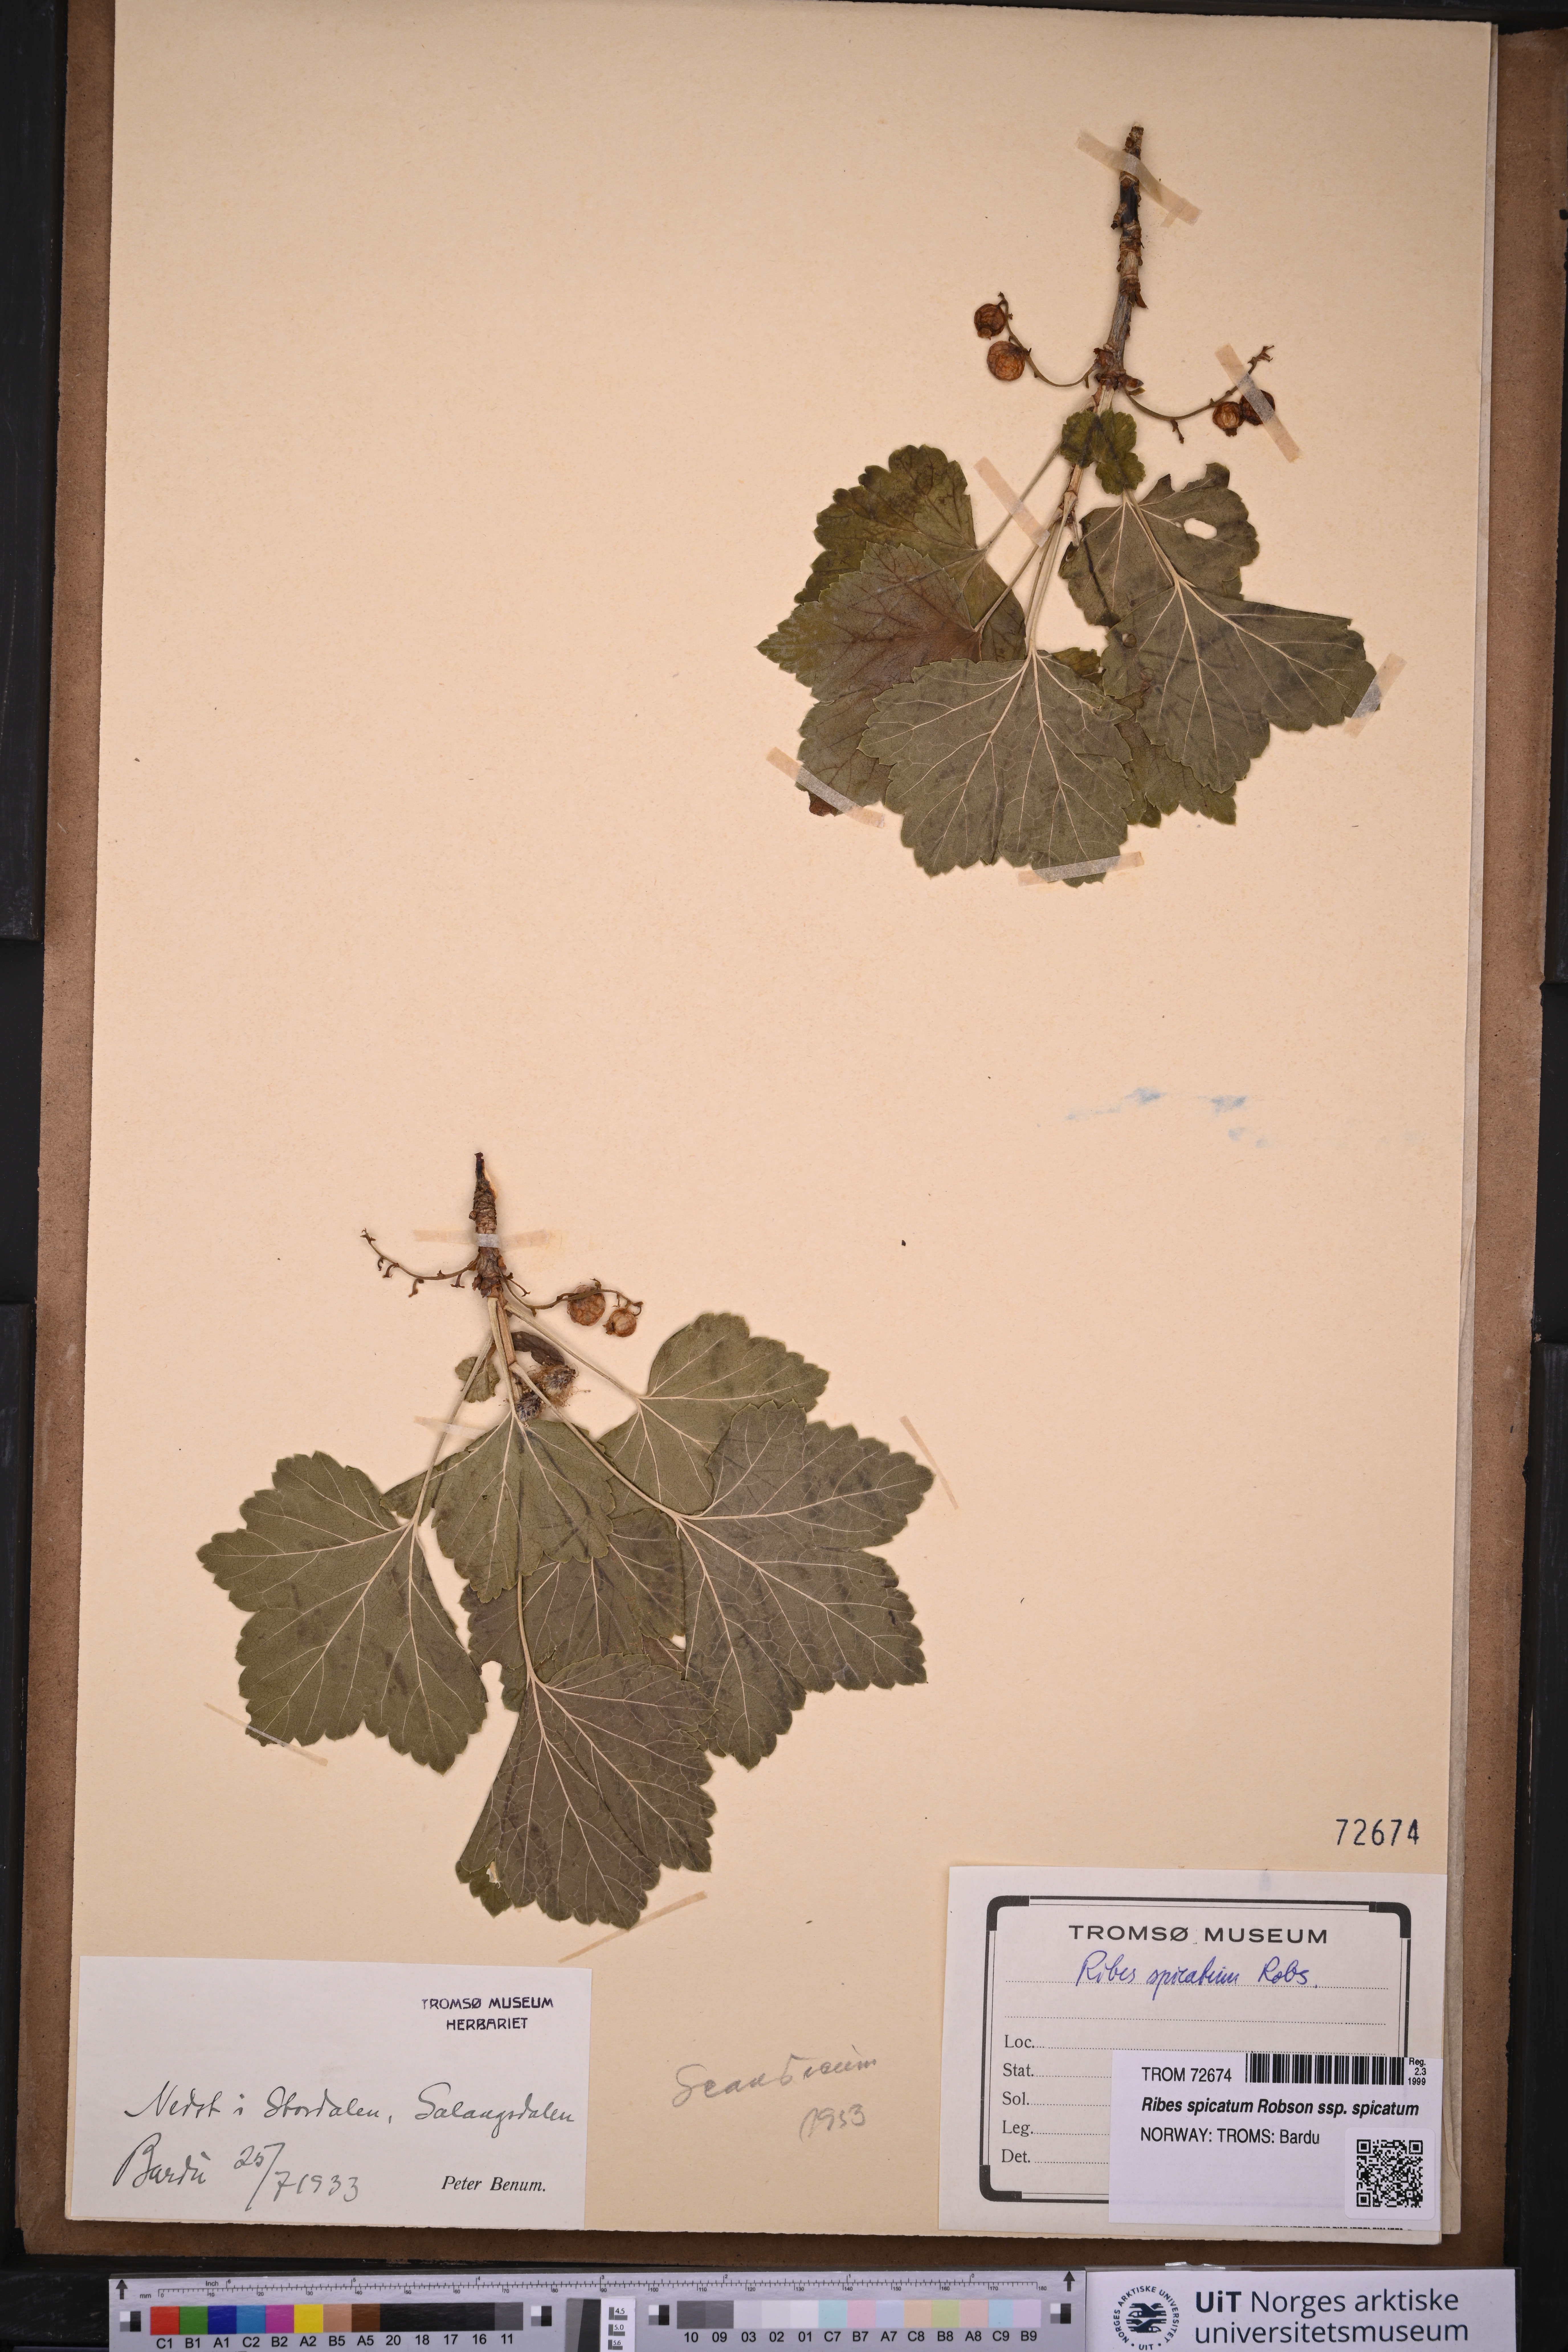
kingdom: Plantae
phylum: Tracheophyta
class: Magnoliopsida
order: Saxifragales
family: Grossulariaceae
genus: Ribes
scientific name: Ribes spicatum
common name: Downy currant
